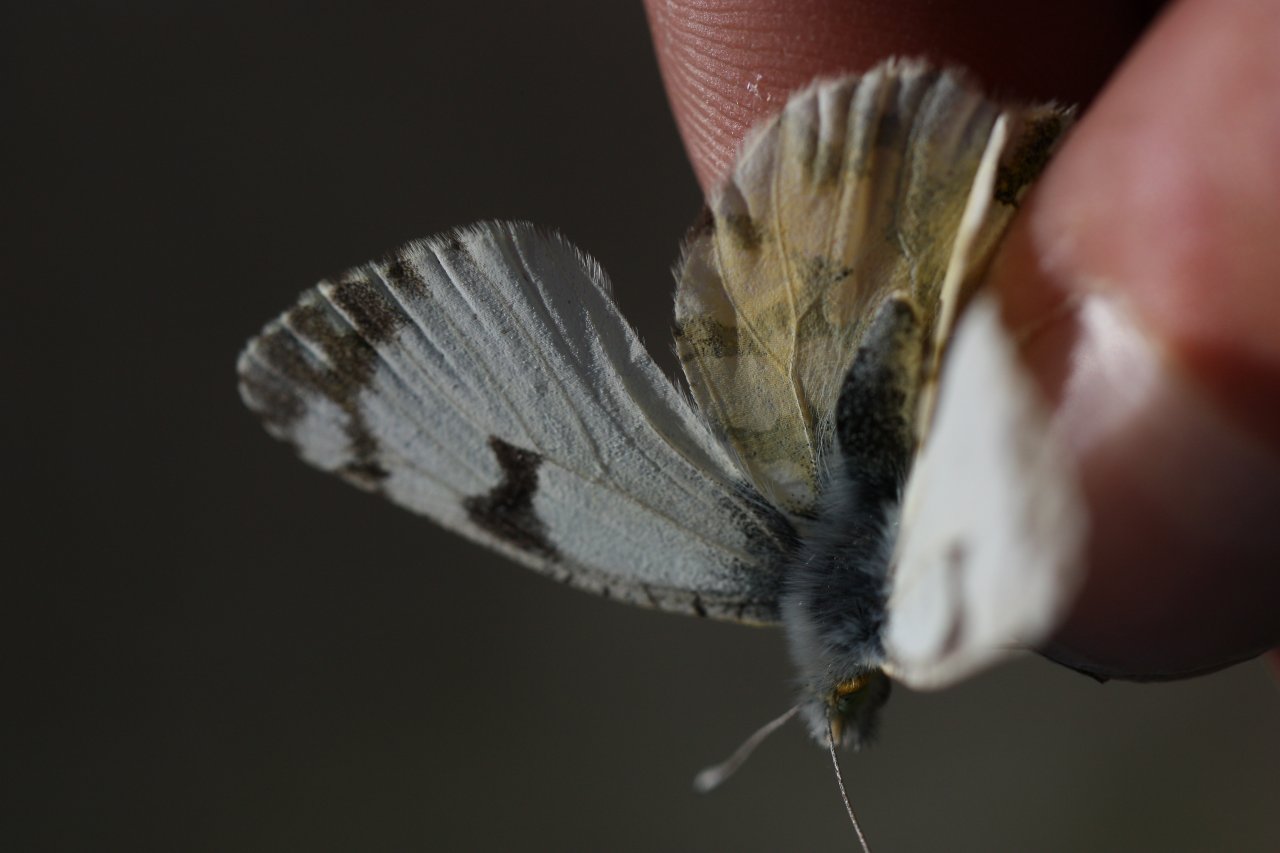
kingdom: Animalia
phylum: Arthropoda
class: Insecta
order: Lepidoptera
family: Pieridae
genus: Euchloe
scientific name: Euchloe ausonides
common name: Large Marble
